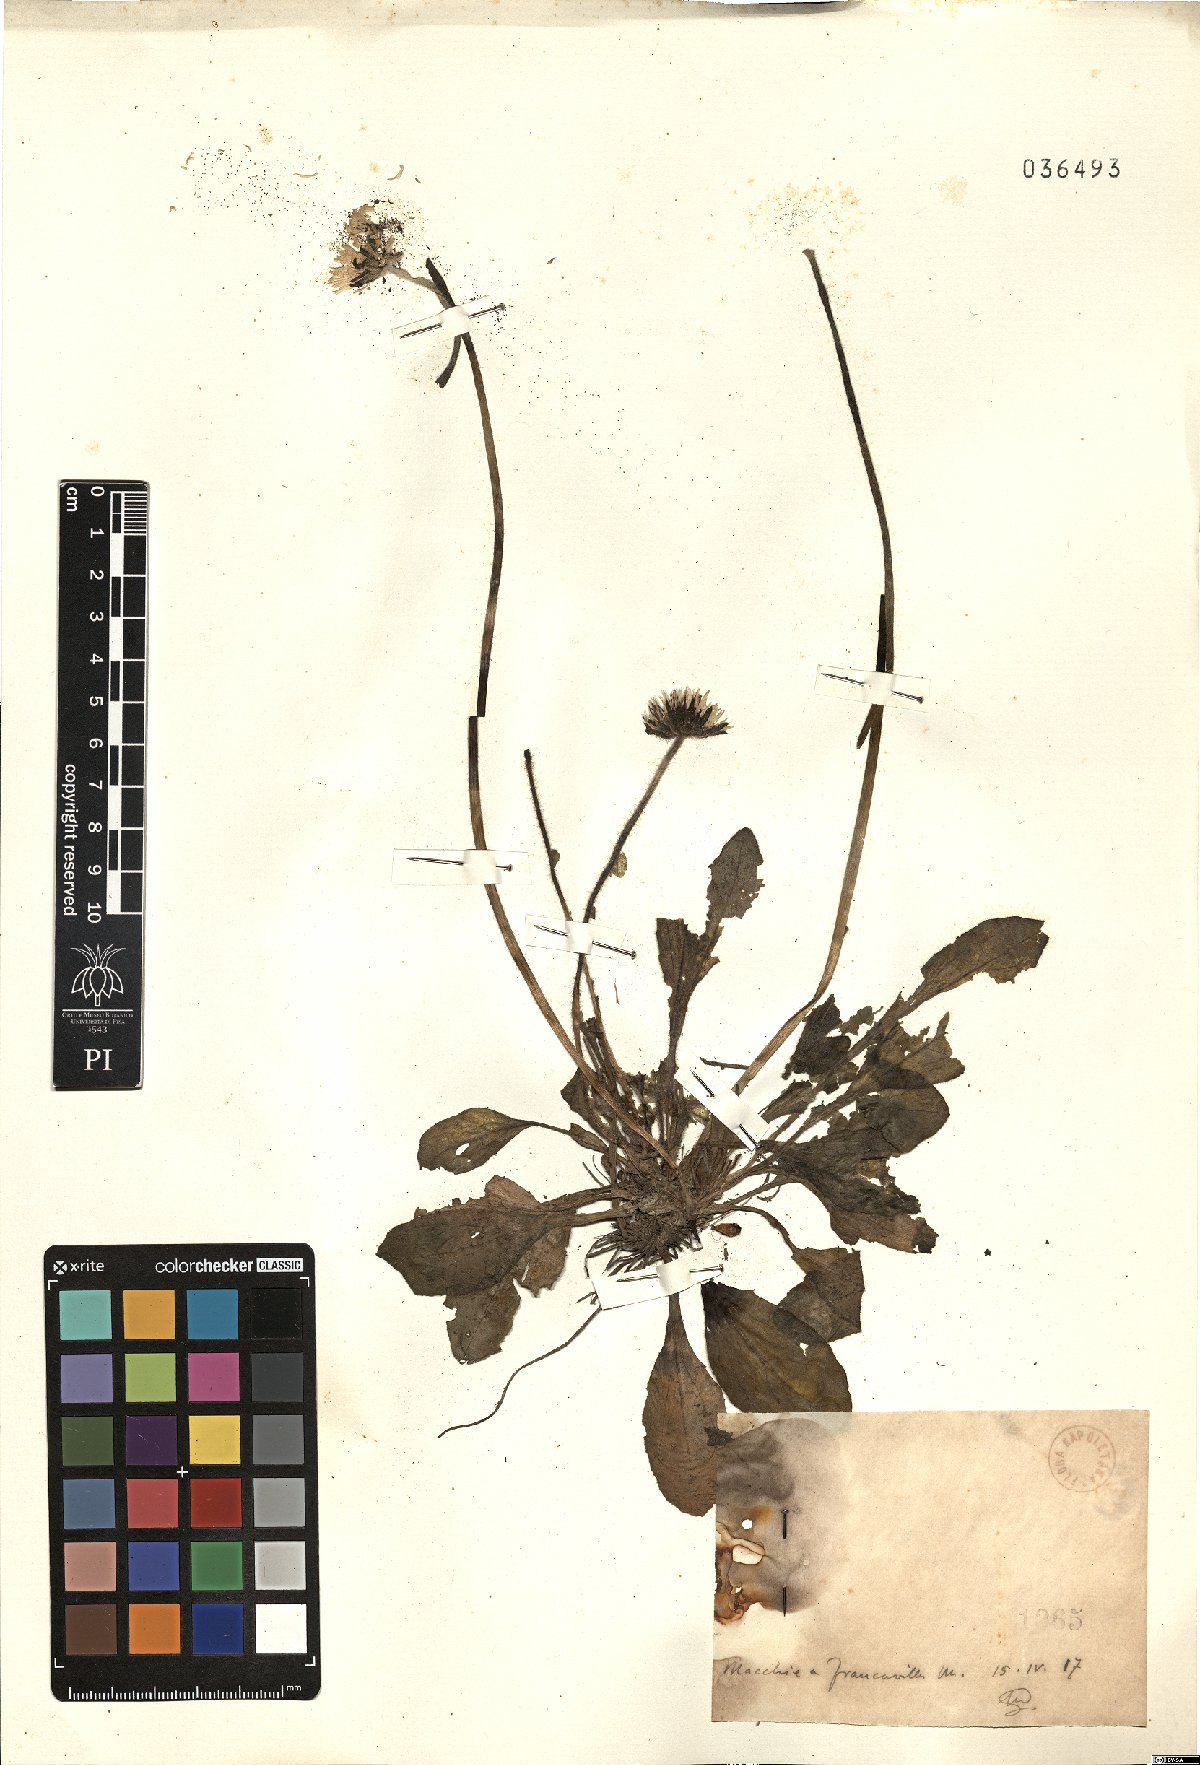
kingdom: Plantae
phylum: Tracheophyta
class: Magnoliopsida
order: Asterales
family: Asteraceae
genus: Bellis
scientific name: Bellis
